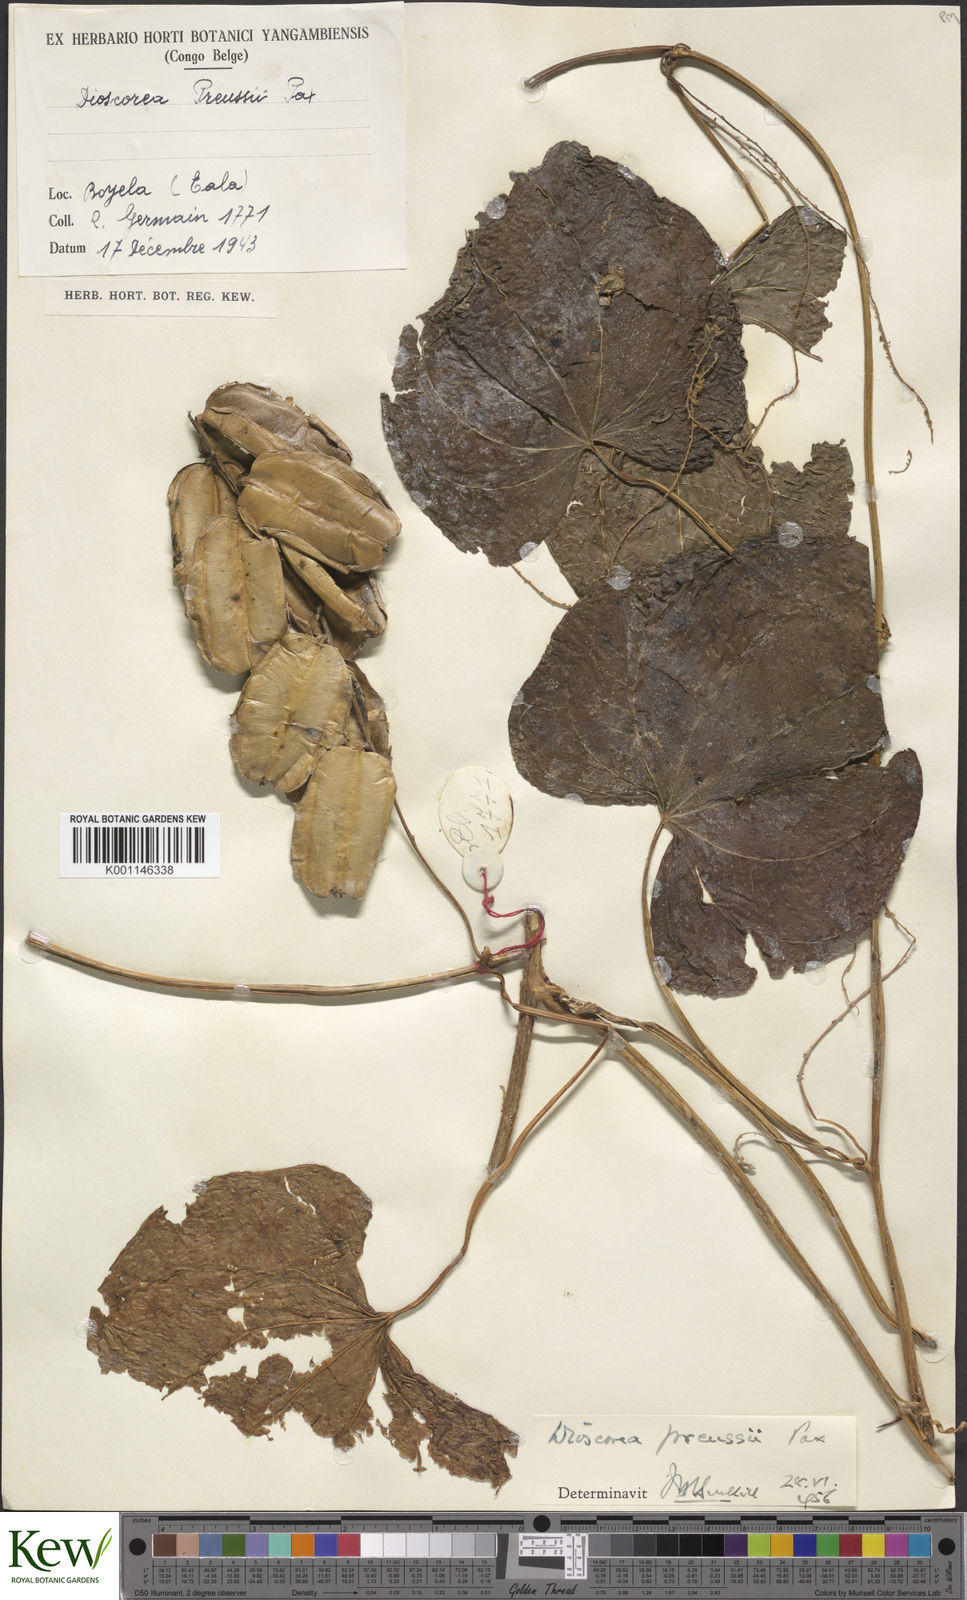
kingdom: Plantae
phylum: Tracheophyta
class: Liliopsida
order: Dioscoreales
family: Dioscoreaceae
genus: Dioscorea
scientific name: Dioscorea preussii
